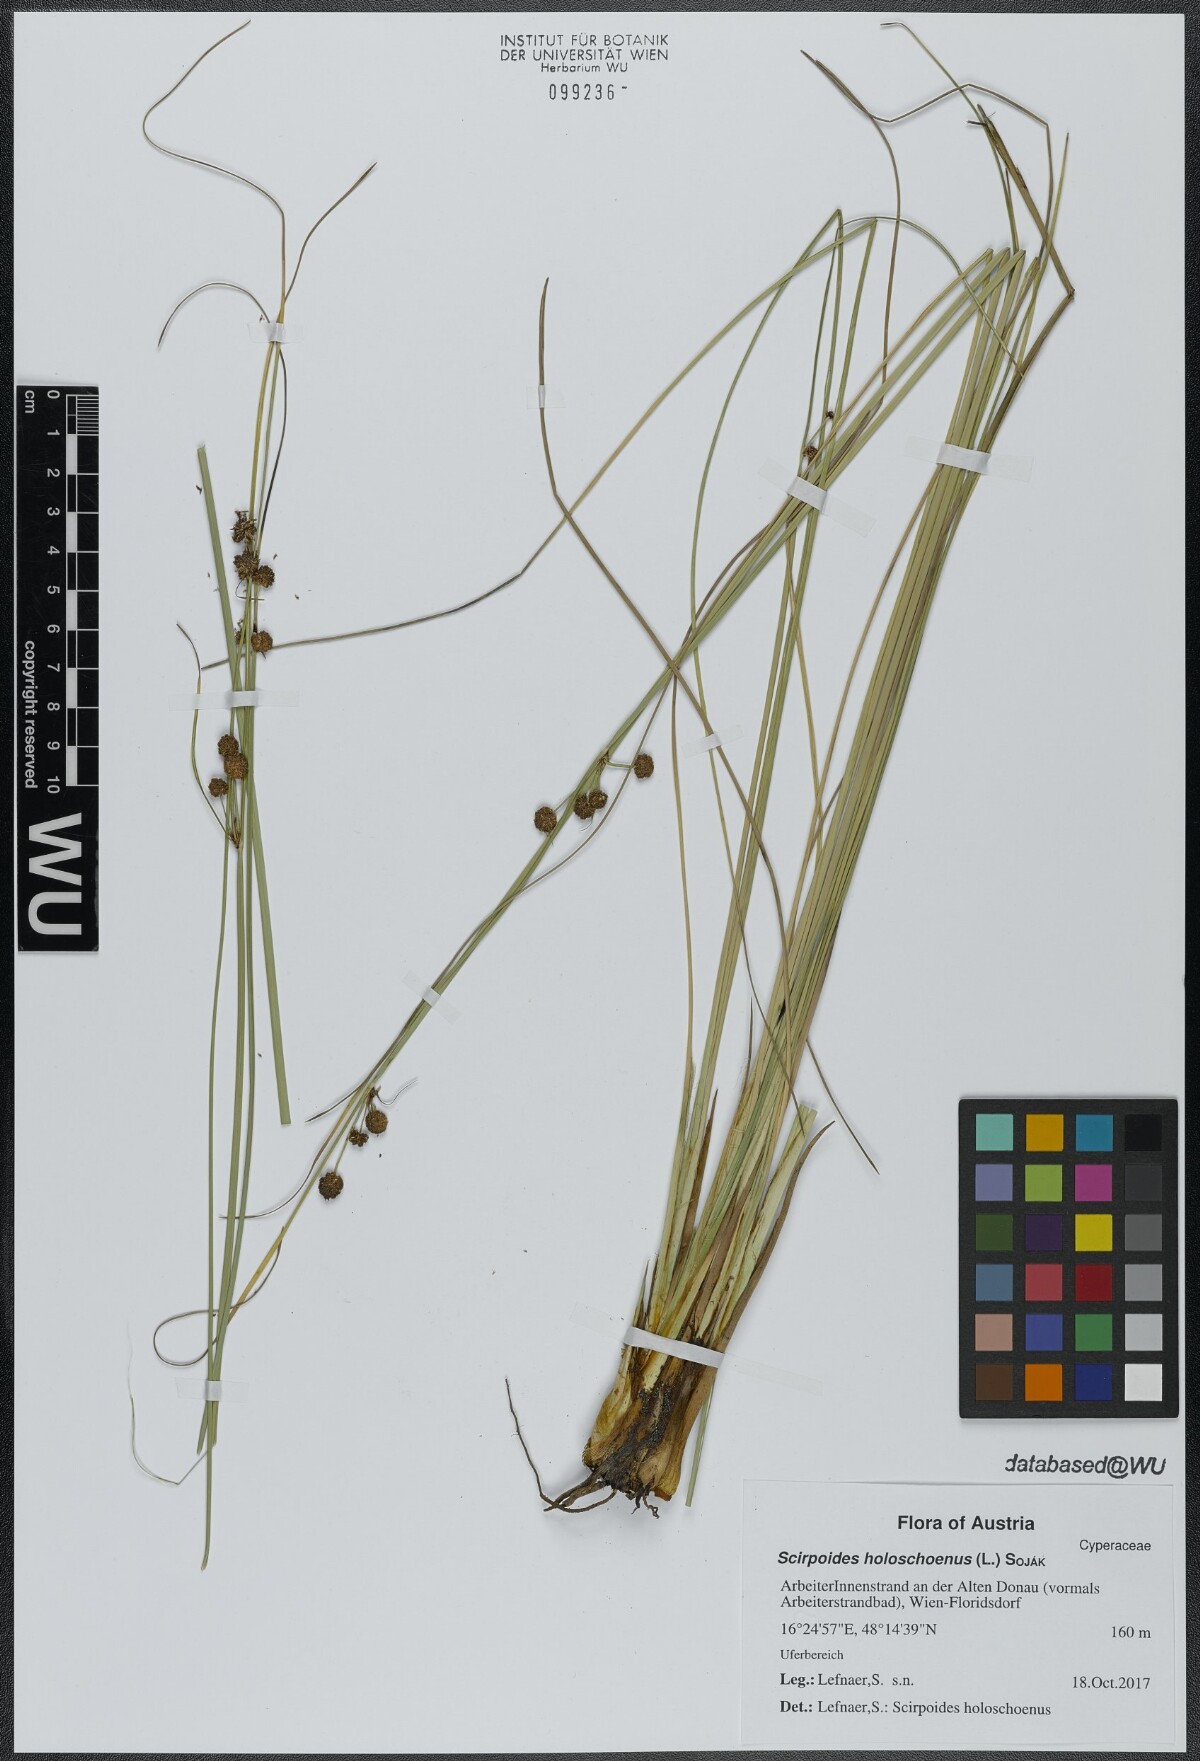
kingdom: Plantae
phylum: Tracheophyta
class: Liliopsida
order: Poales
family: Cyperaceae
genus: Scirpoides
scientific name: Scirpoides holoschoenus
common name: Round-headed club-rush
